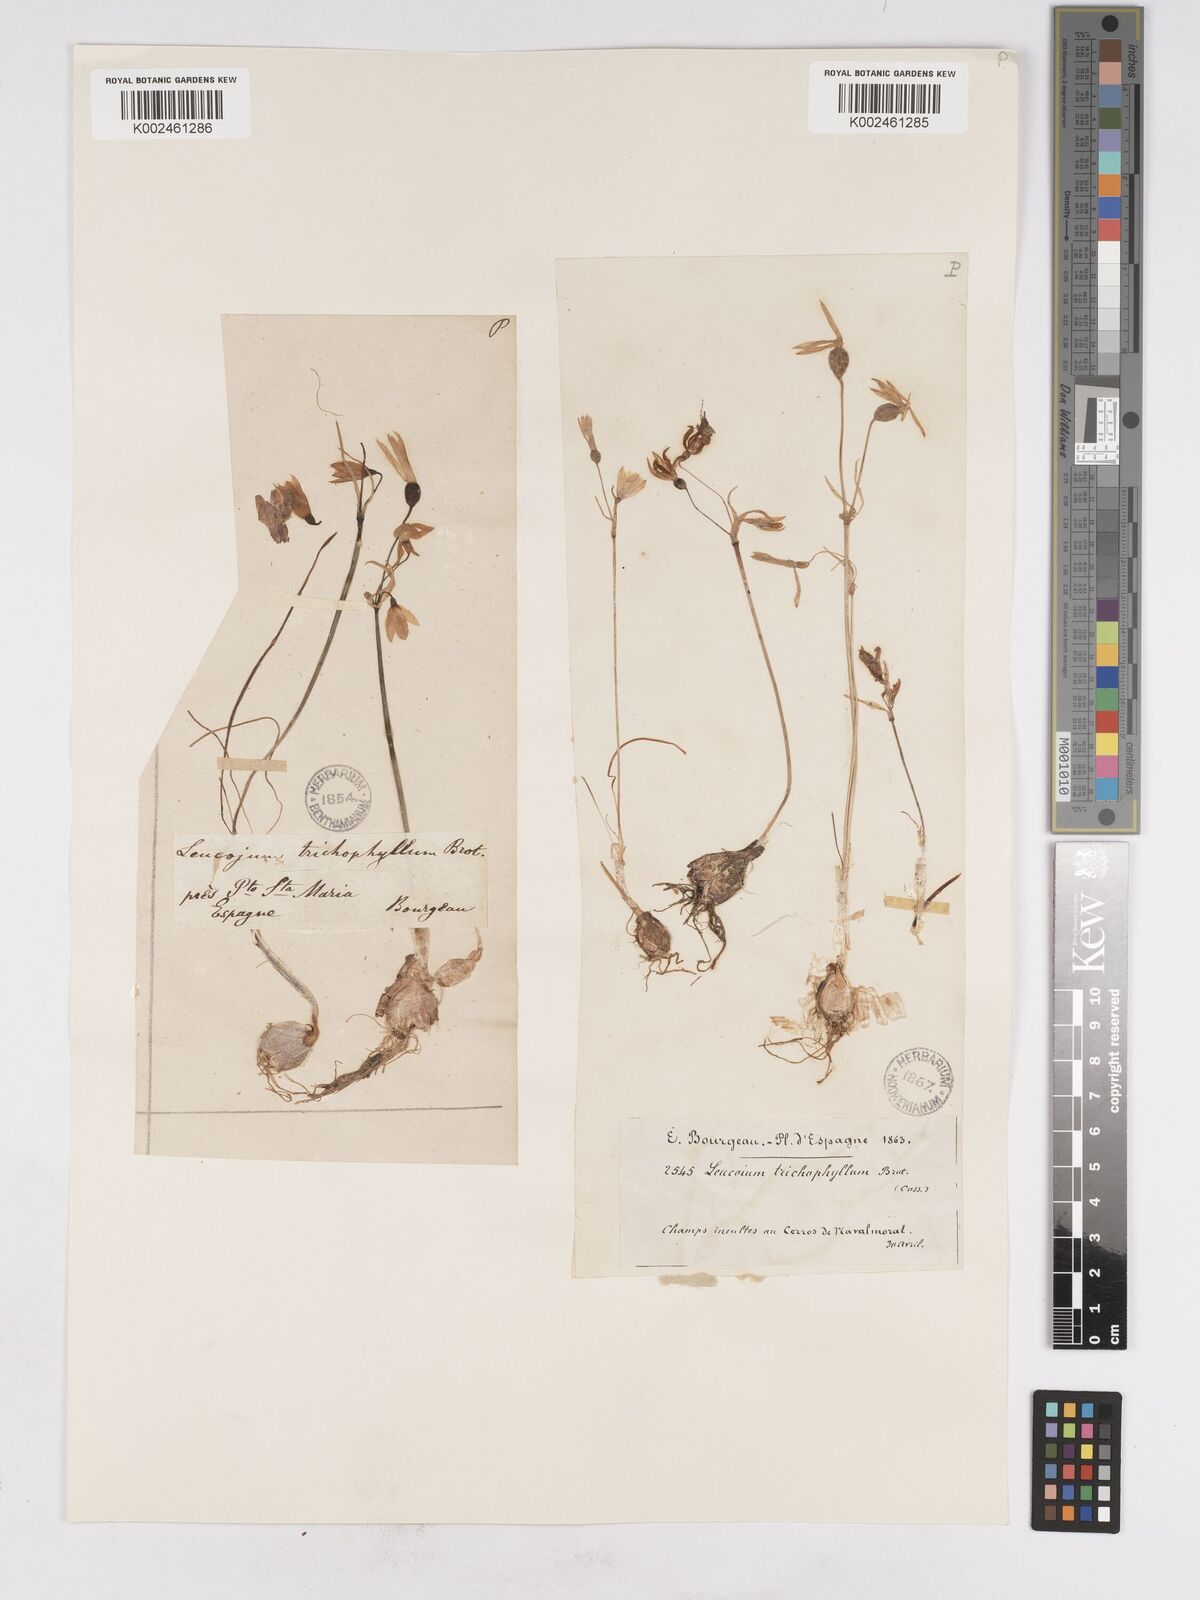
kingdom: Plantae
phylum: Tracheophyta
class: Liliopsida
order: Asparagales
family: Amaryllidaceae
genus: Acis
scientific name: Acis trichophylla
